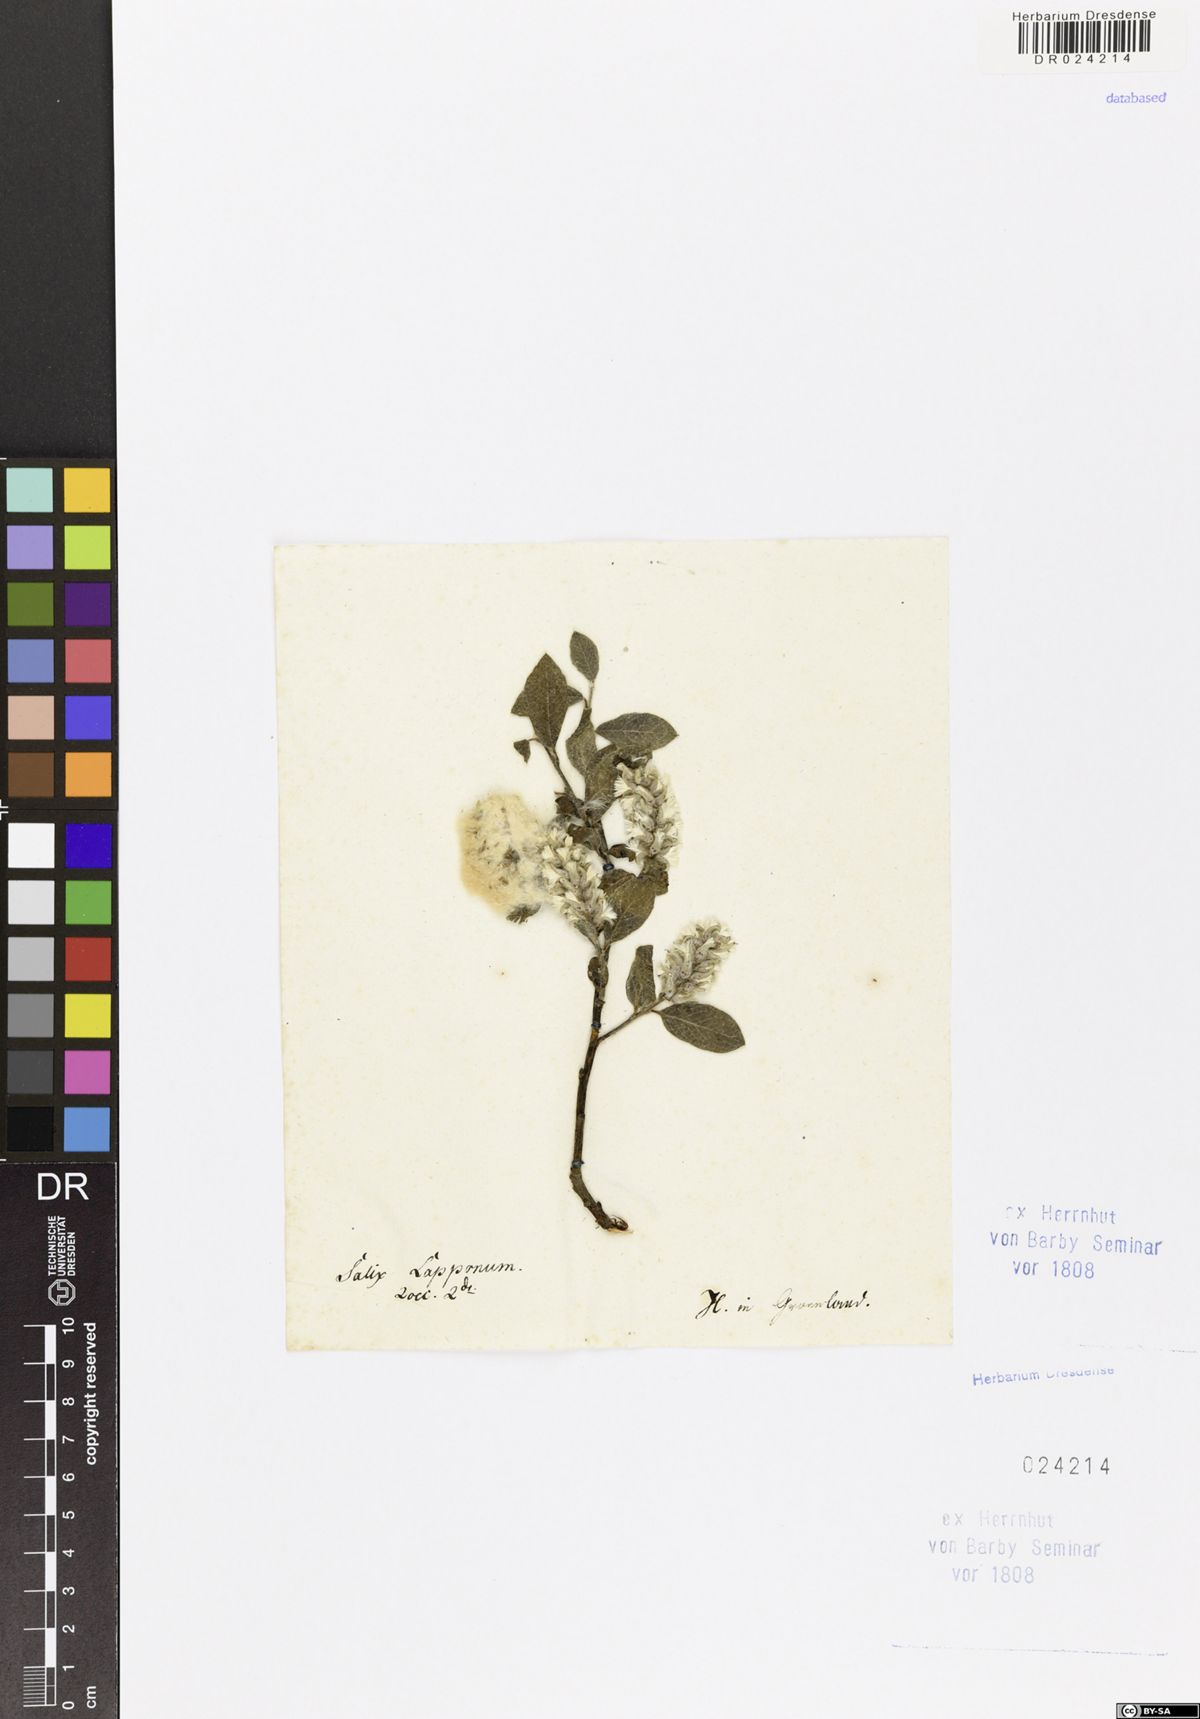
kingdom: Plantae
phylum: Tracheophyta
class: Magnoliopsida
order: Malpighiales
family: Salicaceae
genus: Salix
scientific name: Salix lapponum
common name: Downy willow
